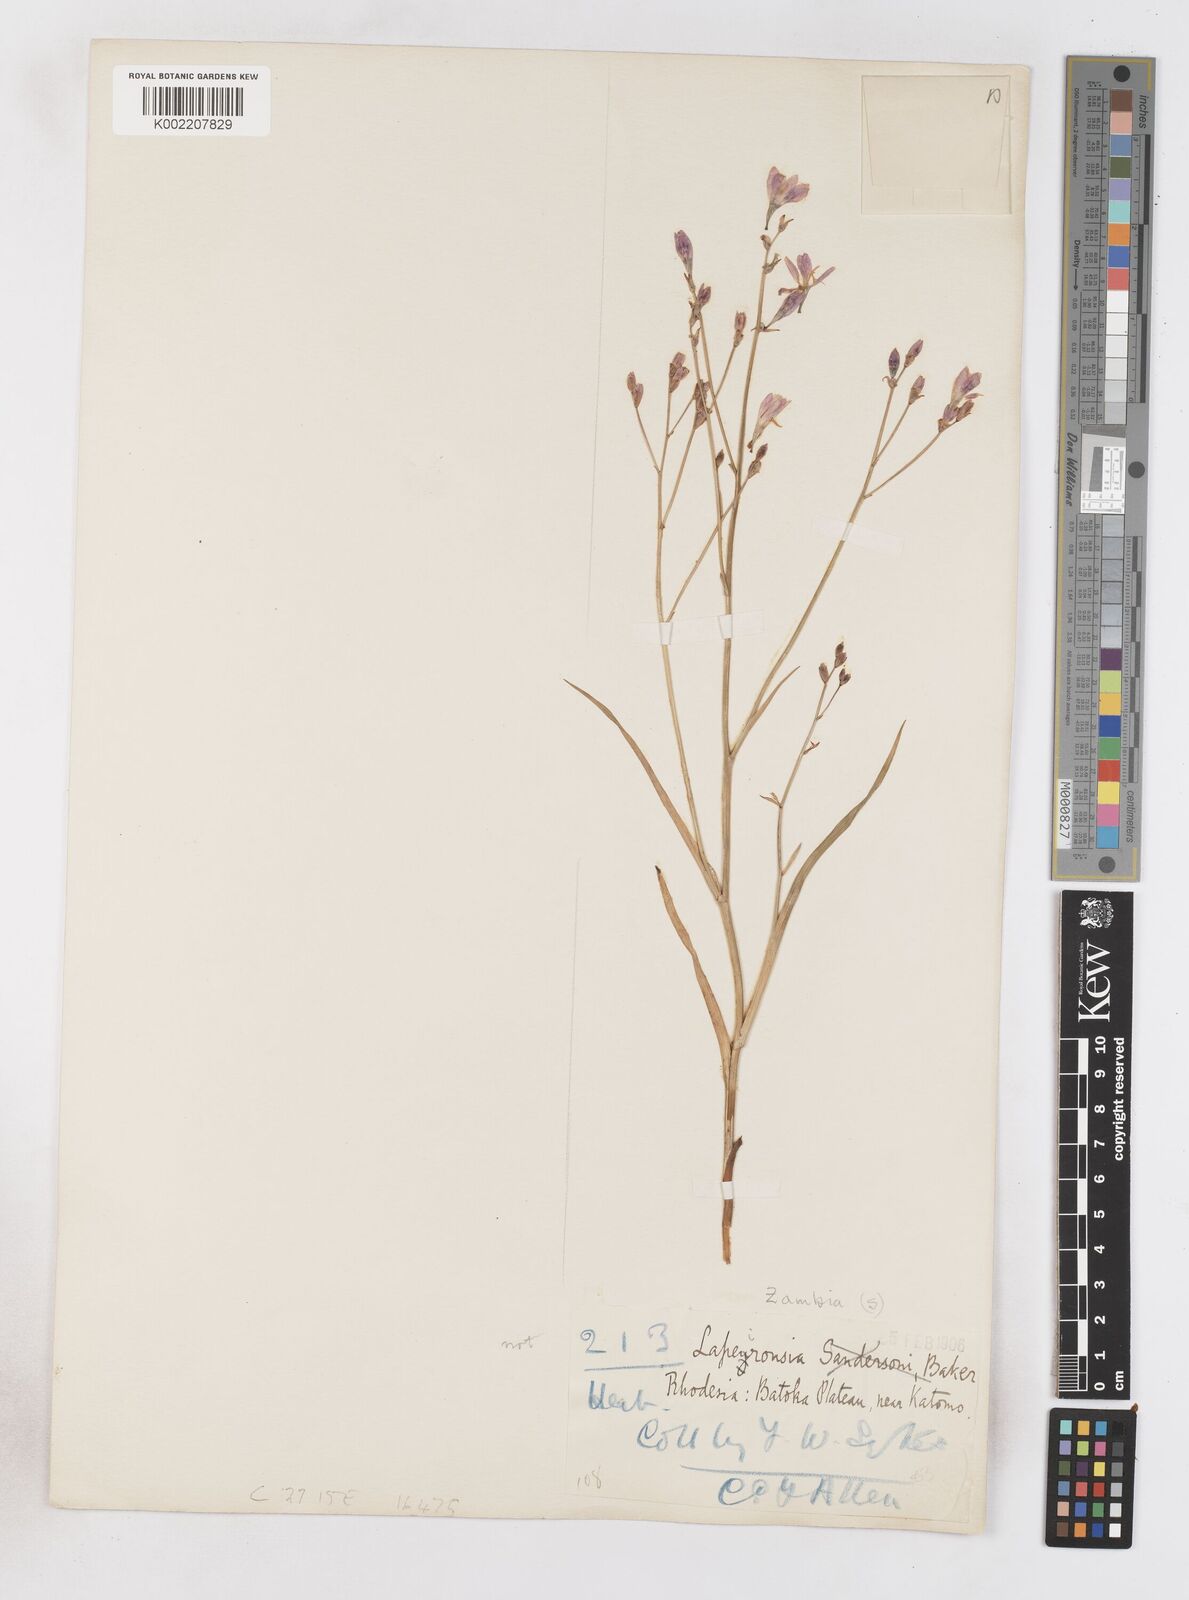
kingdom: Plantae
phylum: Tracheophyta
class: Liliopsida
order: Asparagales
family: Iridaceae
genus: Afrosolen
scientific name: Afrosolen rivularis
